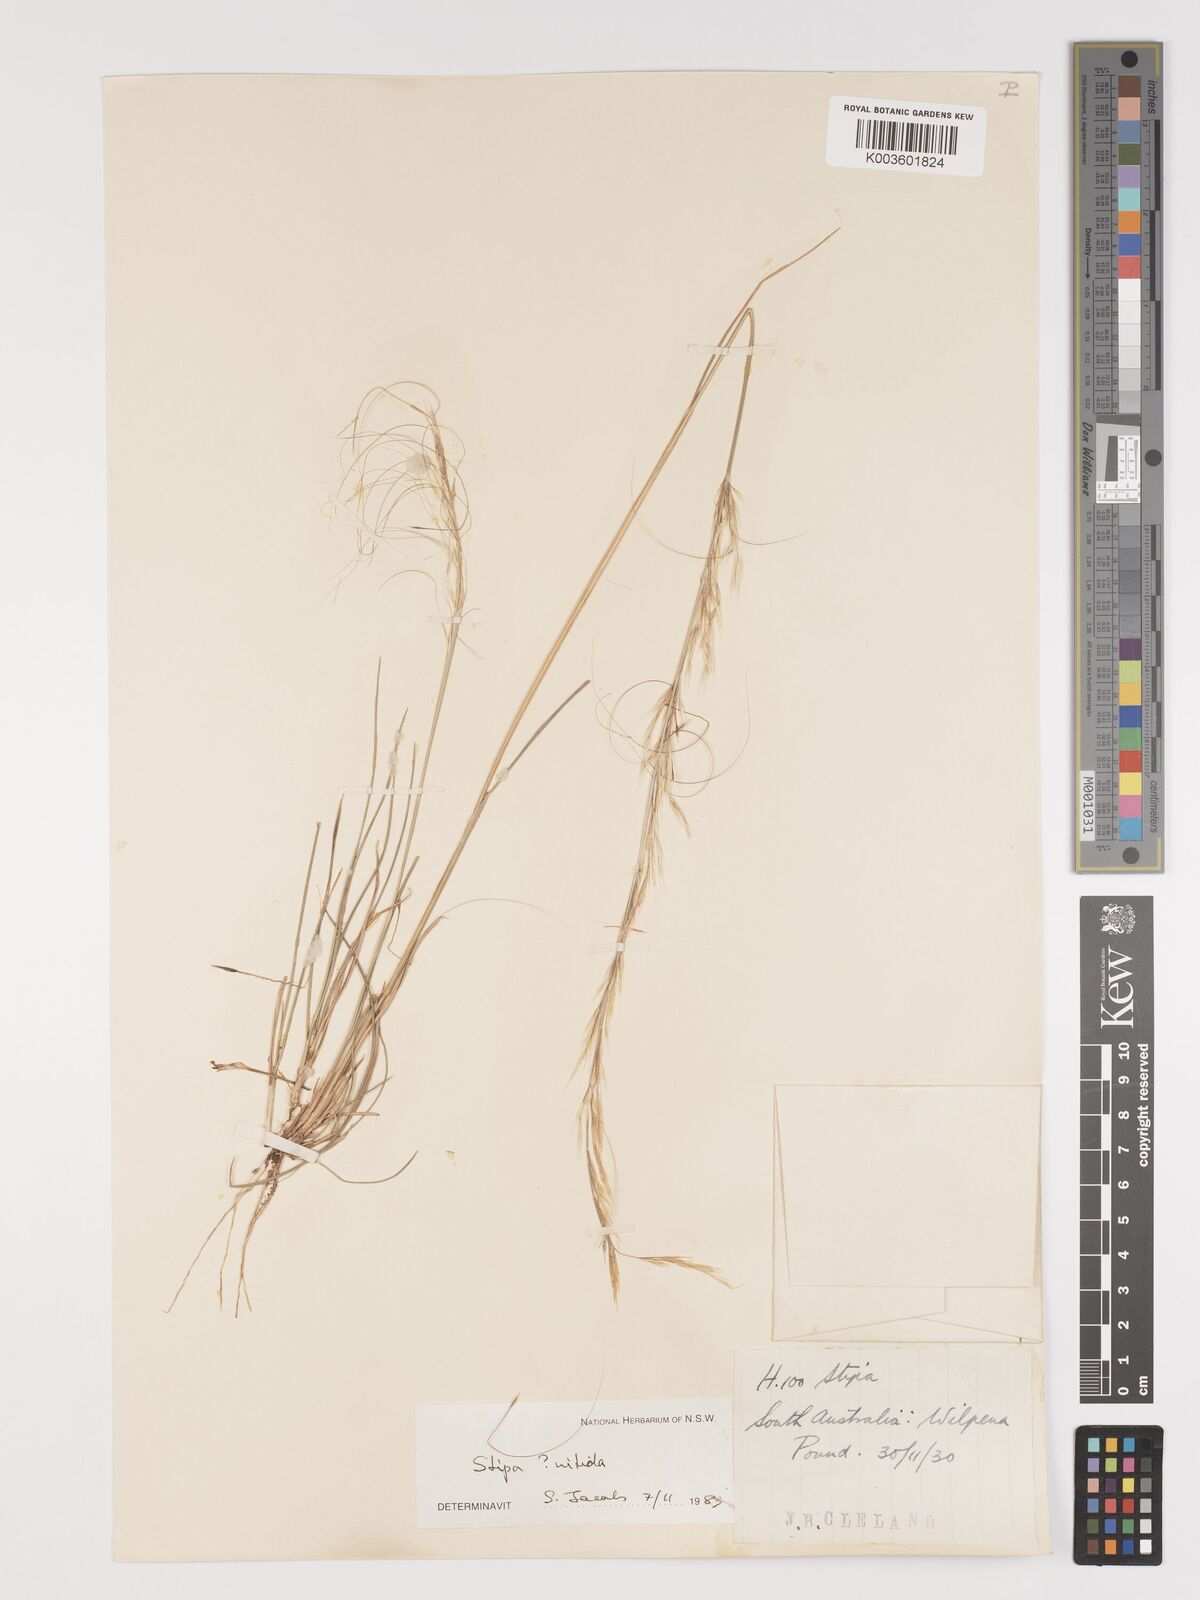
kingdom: Plantae
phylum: Tracheophyta
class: Liliopsida
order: Poales
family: Poaceae
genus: Austrostipa
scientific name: Austrostipa nitida
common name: Balcarra grass
